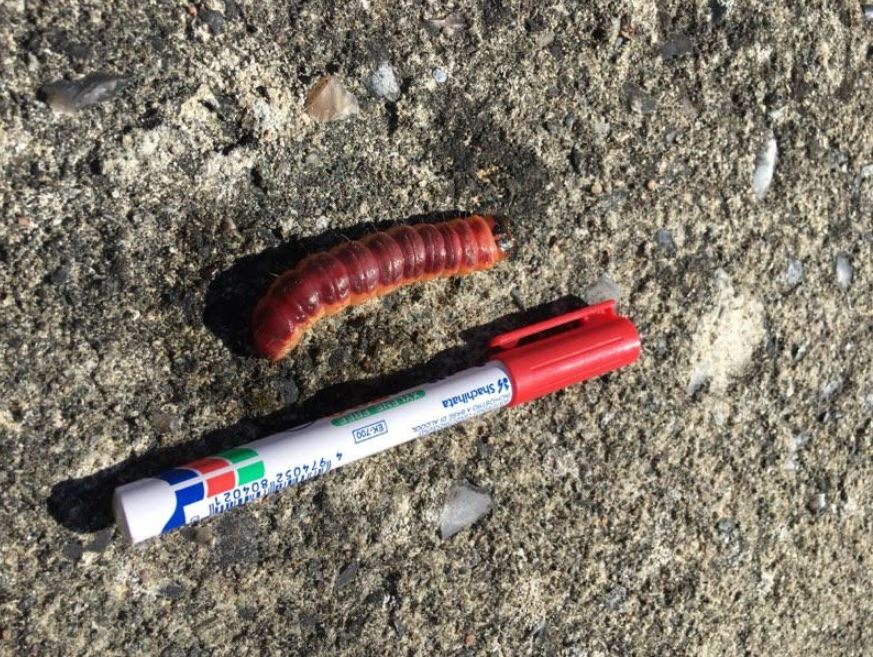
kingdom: Animalia
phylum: Arthropoda
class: Insecta
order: Lepidoptera
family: Cossidae
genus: Cossus
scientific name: Cossus cossus
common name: Pileborer
